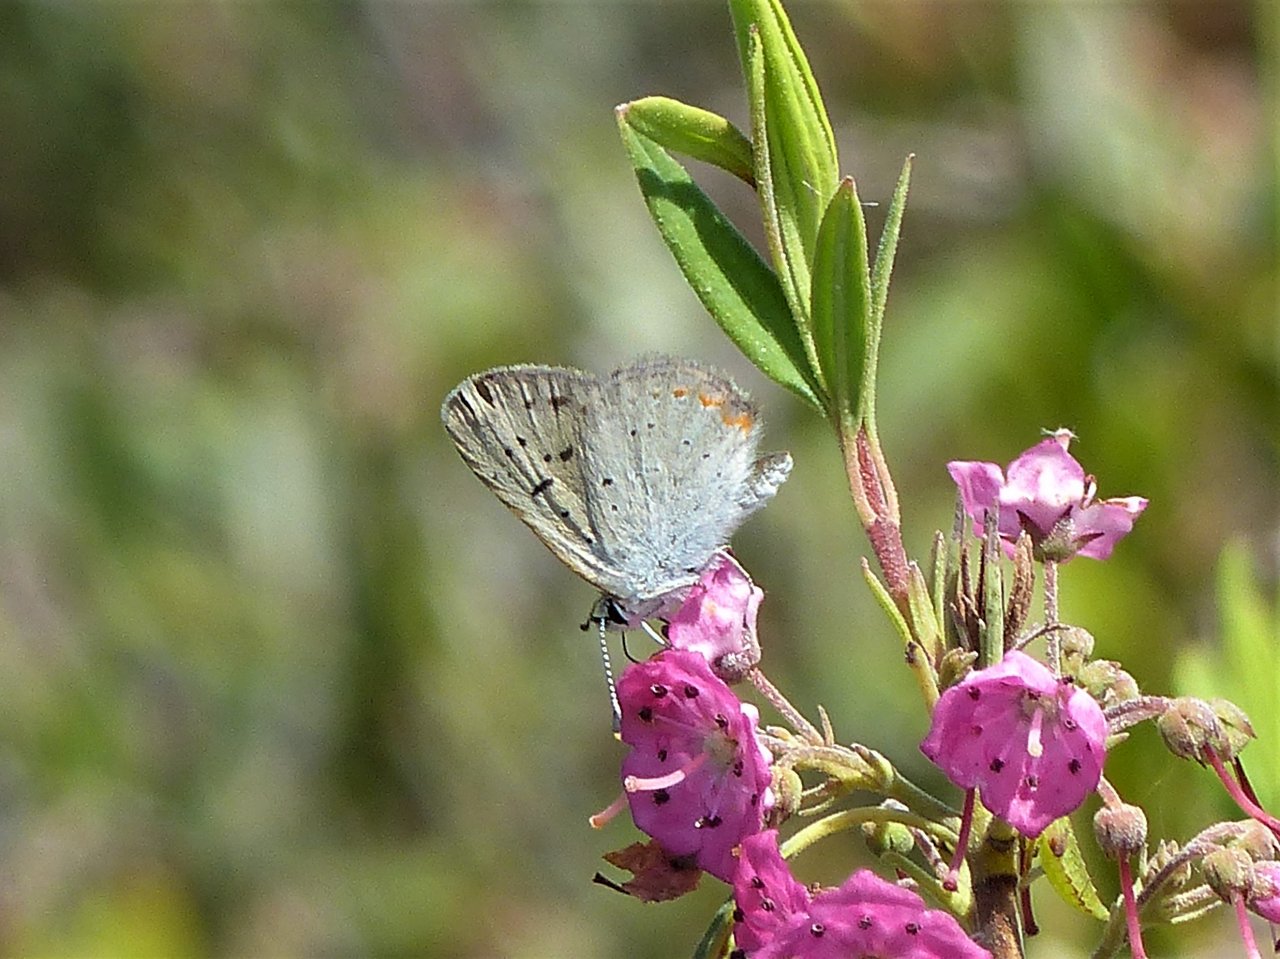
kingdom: Animalia
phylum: Arthropoda
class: Insecta
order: Lepidoptera
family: Sesiidae
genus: Sesia
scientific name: Sesia Lycaena epixanthe
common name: Bog Copper
